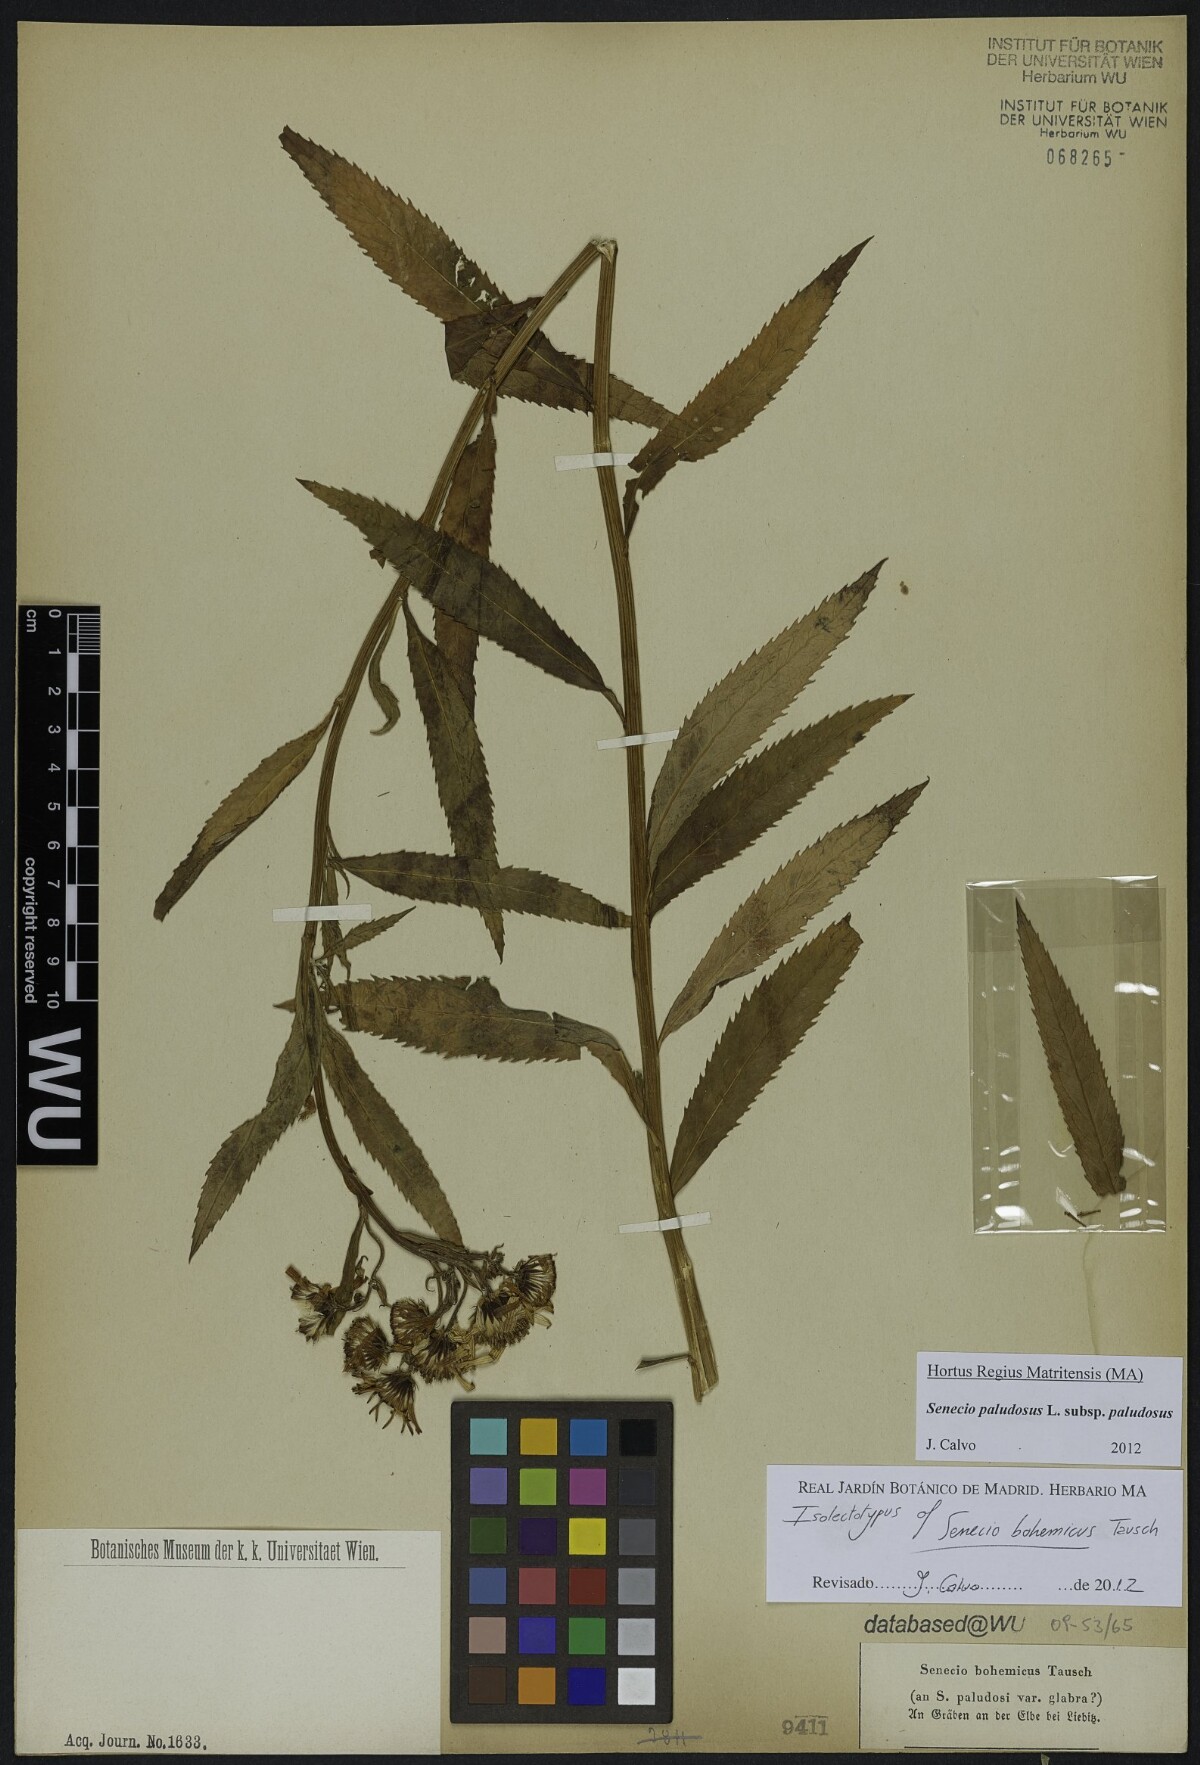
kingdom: Plantae
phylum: Tracheophyta
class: Magnoliopsida
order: Asterales
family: Asteraceae
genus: Jacobaea
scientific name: Jacobaea paludosa
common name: Fen ragwort
